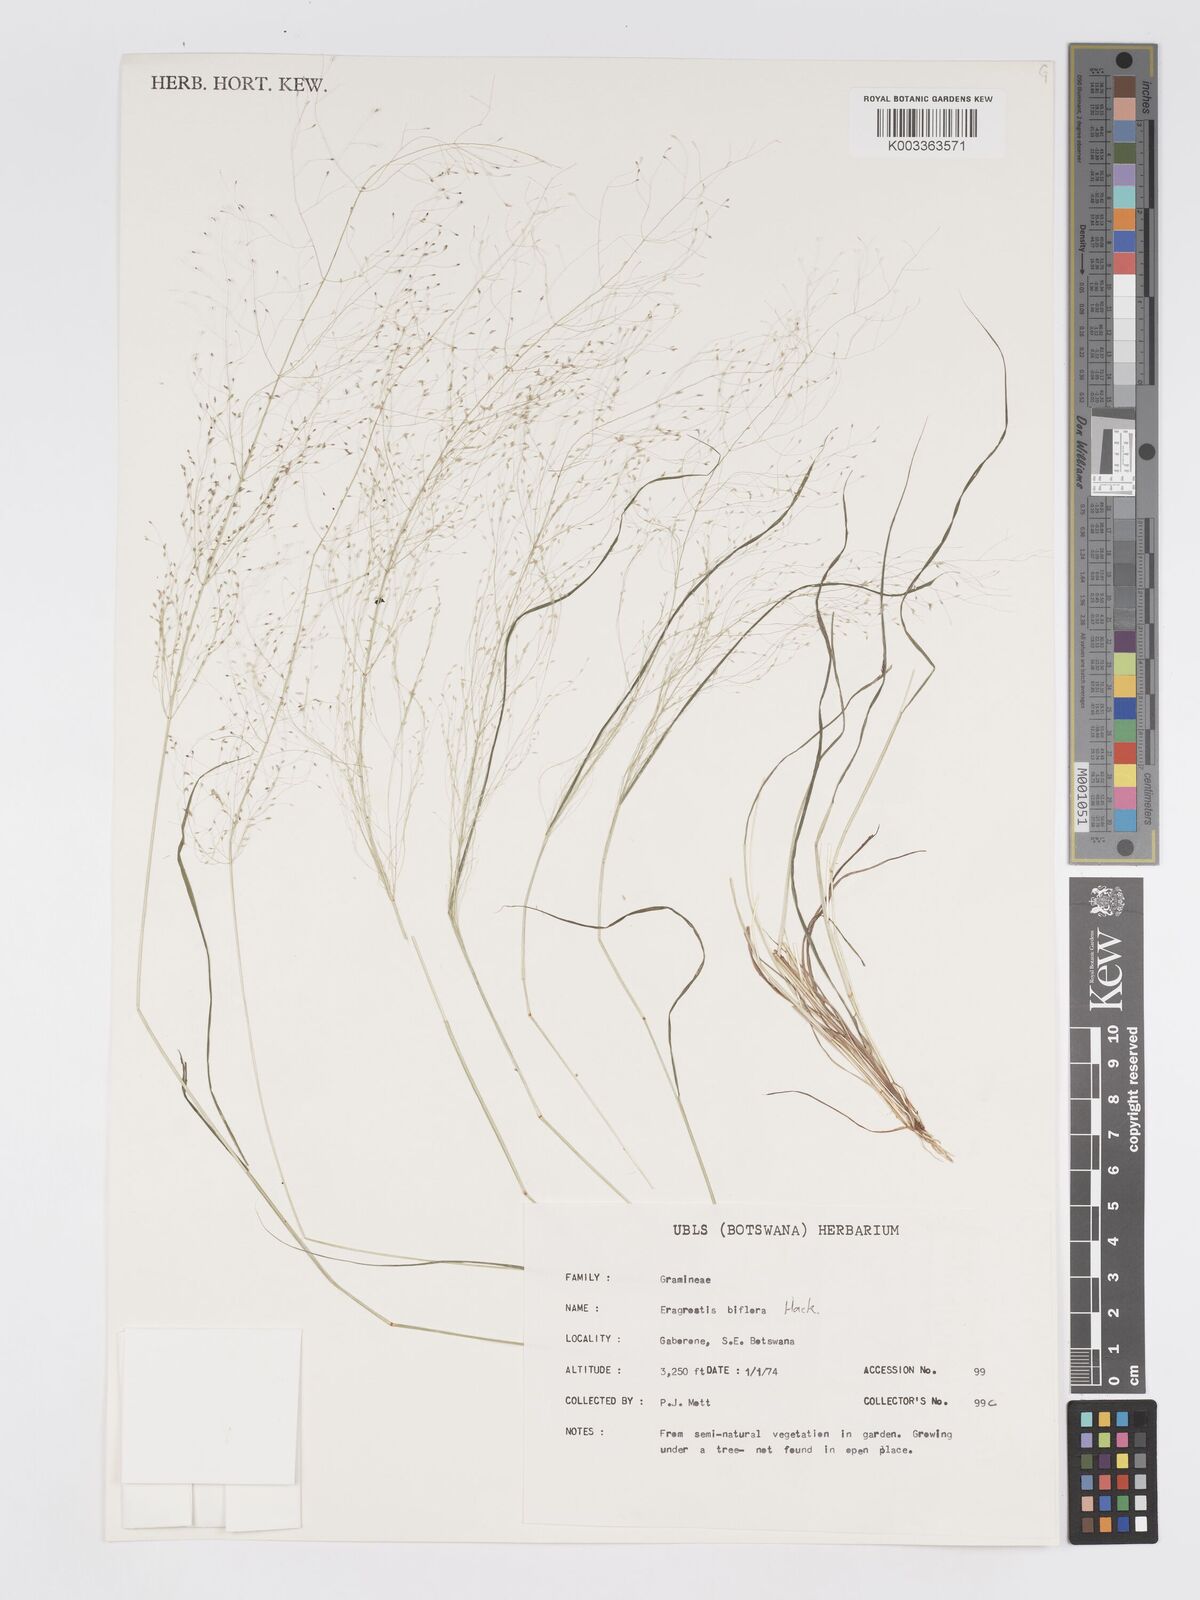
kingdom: Plantae
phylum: Tracheophyta
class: Liliopsida
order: Poales
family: Poaceae
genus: Eragrostis
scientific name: Eragrostis biflora
